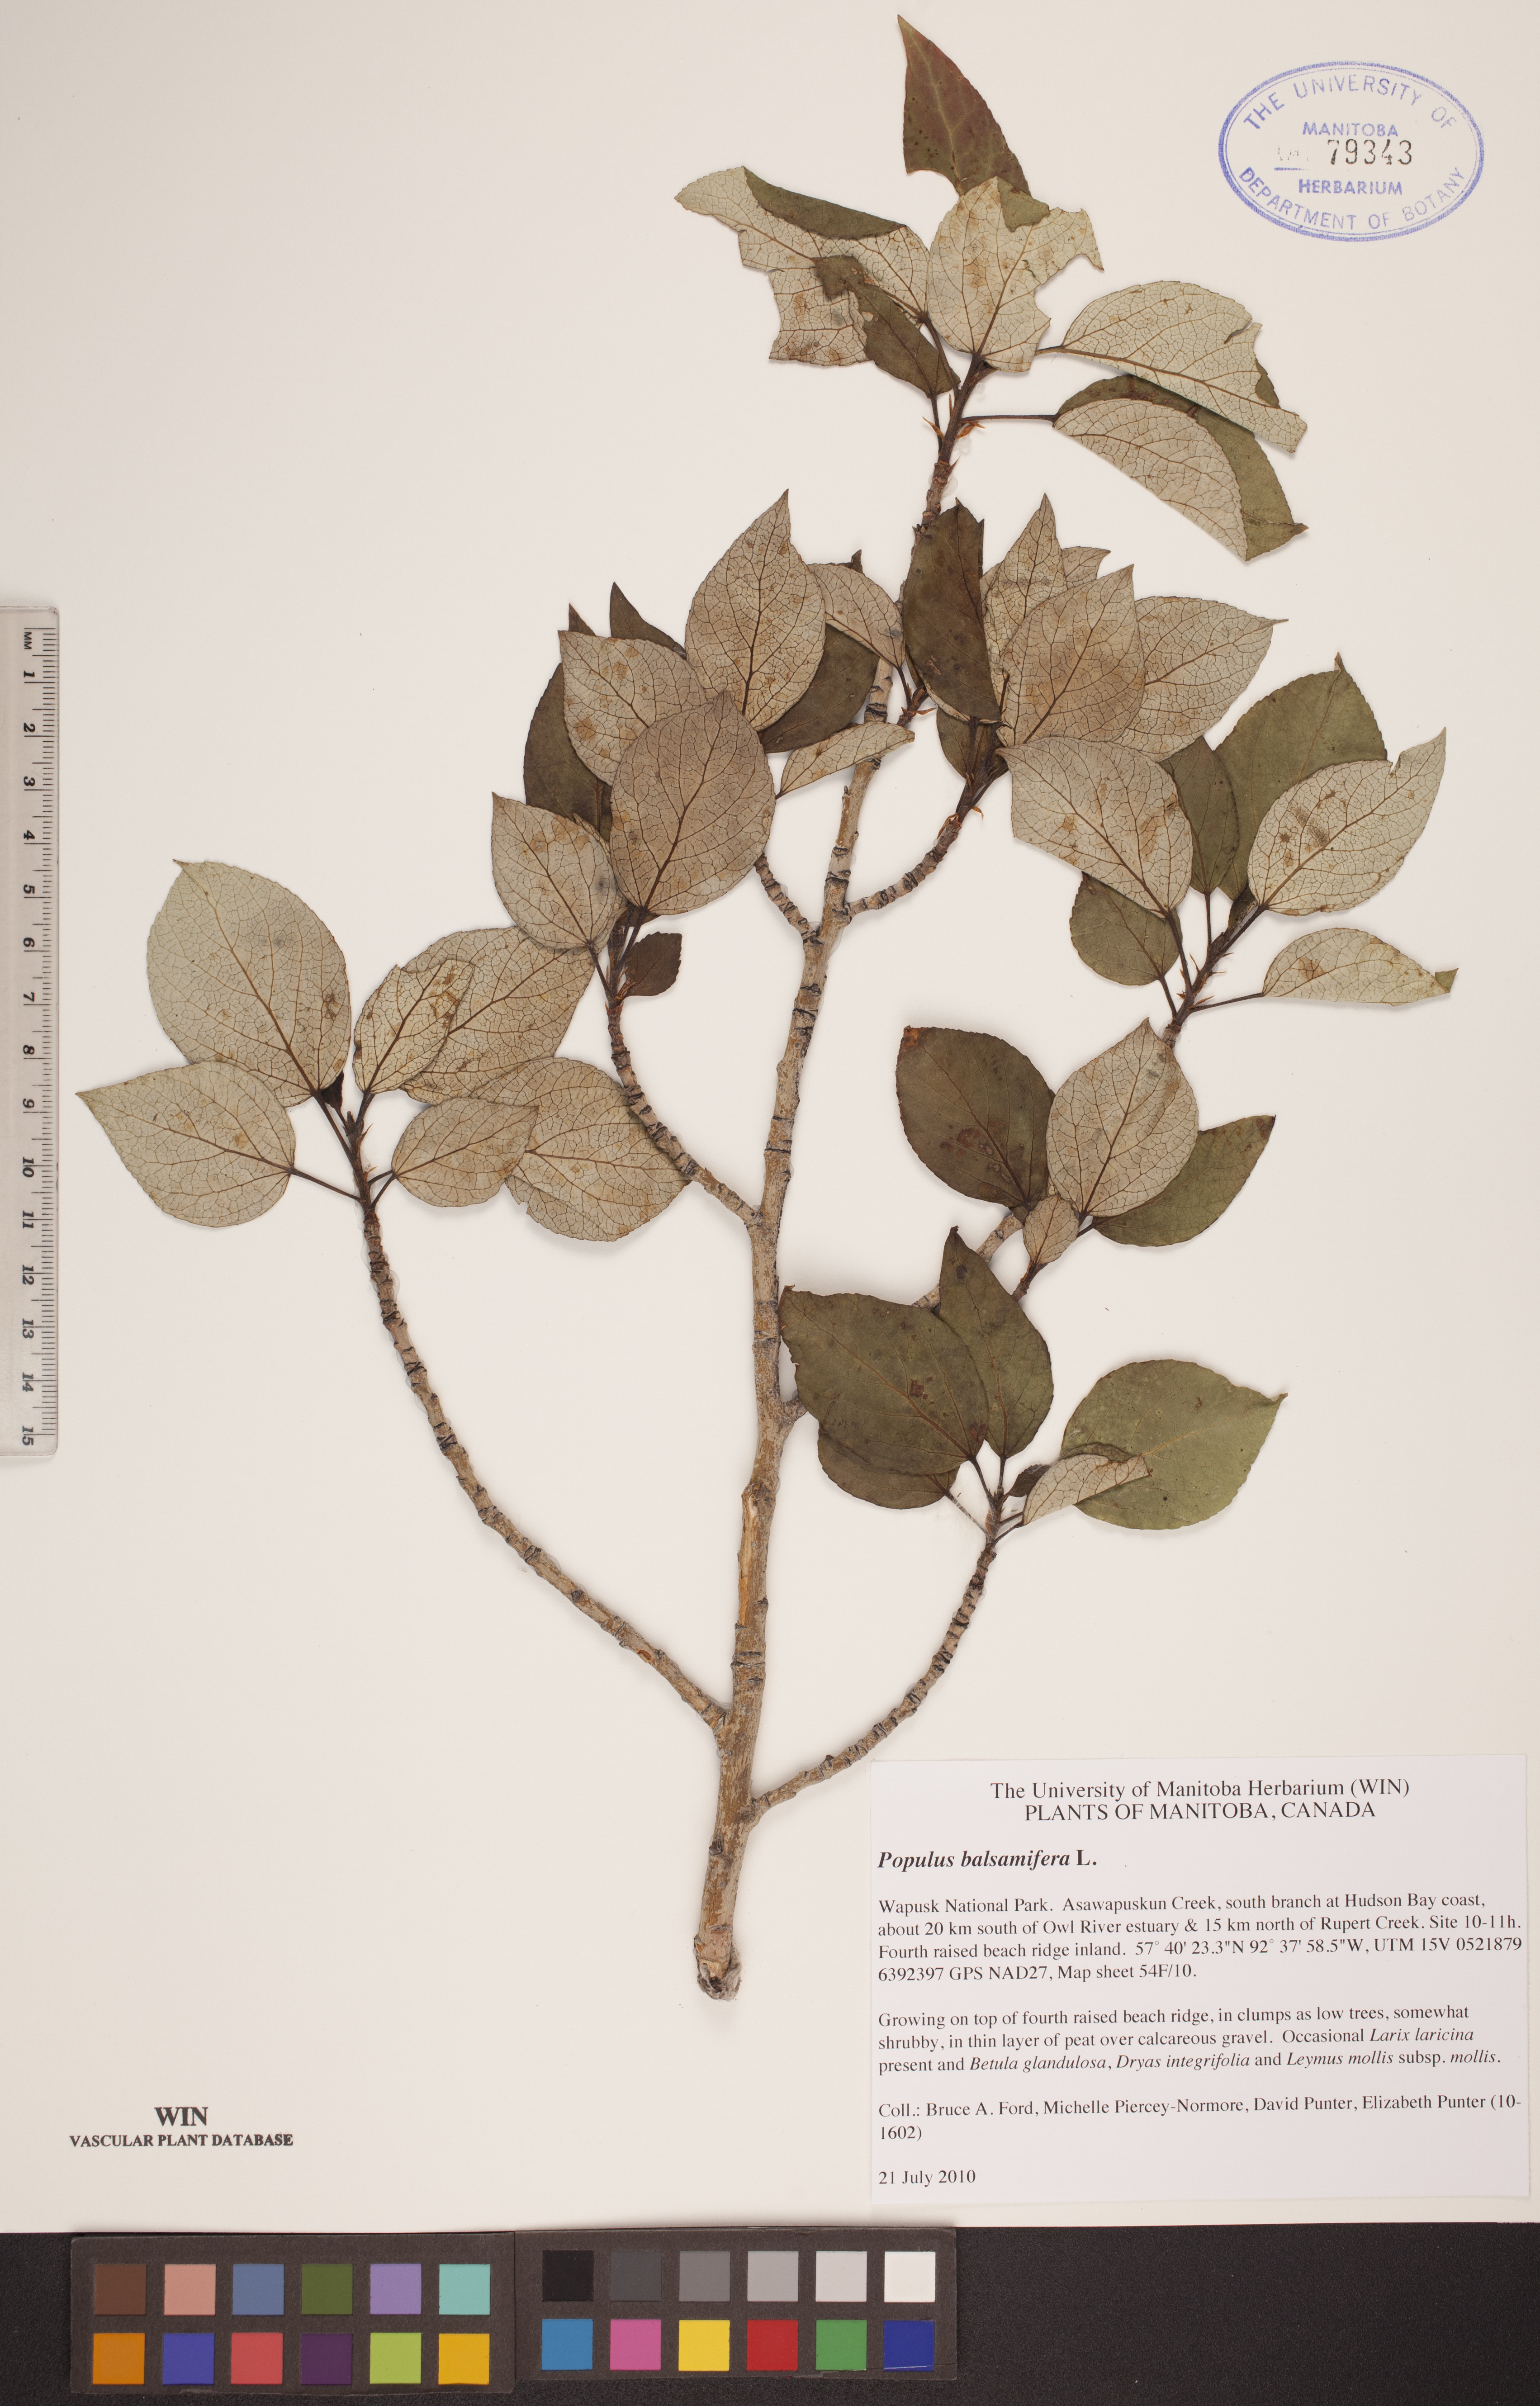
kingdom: Plantae
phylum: Tracheophyta
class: Magnoliopsida
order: Malpighiales
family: Salicaceae
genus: Populus
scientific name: Populus balsamifera
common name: Balsam poplar
